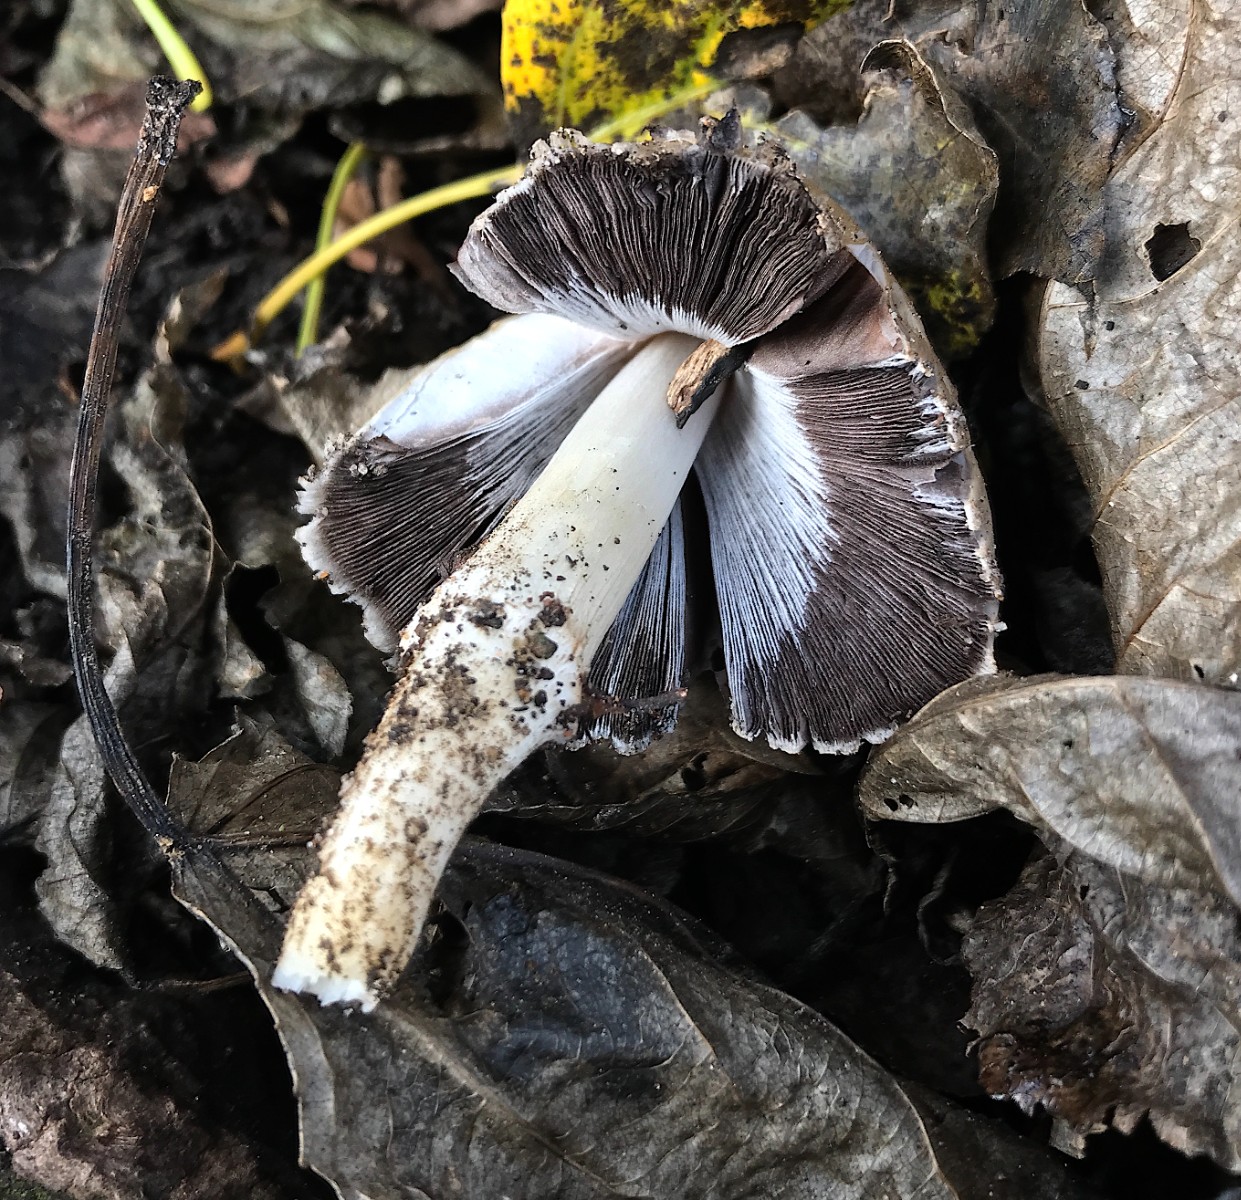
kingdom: Fungi
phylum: Basidiomycota
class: Agaricomycetes
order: Agaricales
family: Psathyrellaceae
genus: Coprinopsis
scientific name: Coprinopsis atramentaria
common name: almindelig blækhat
